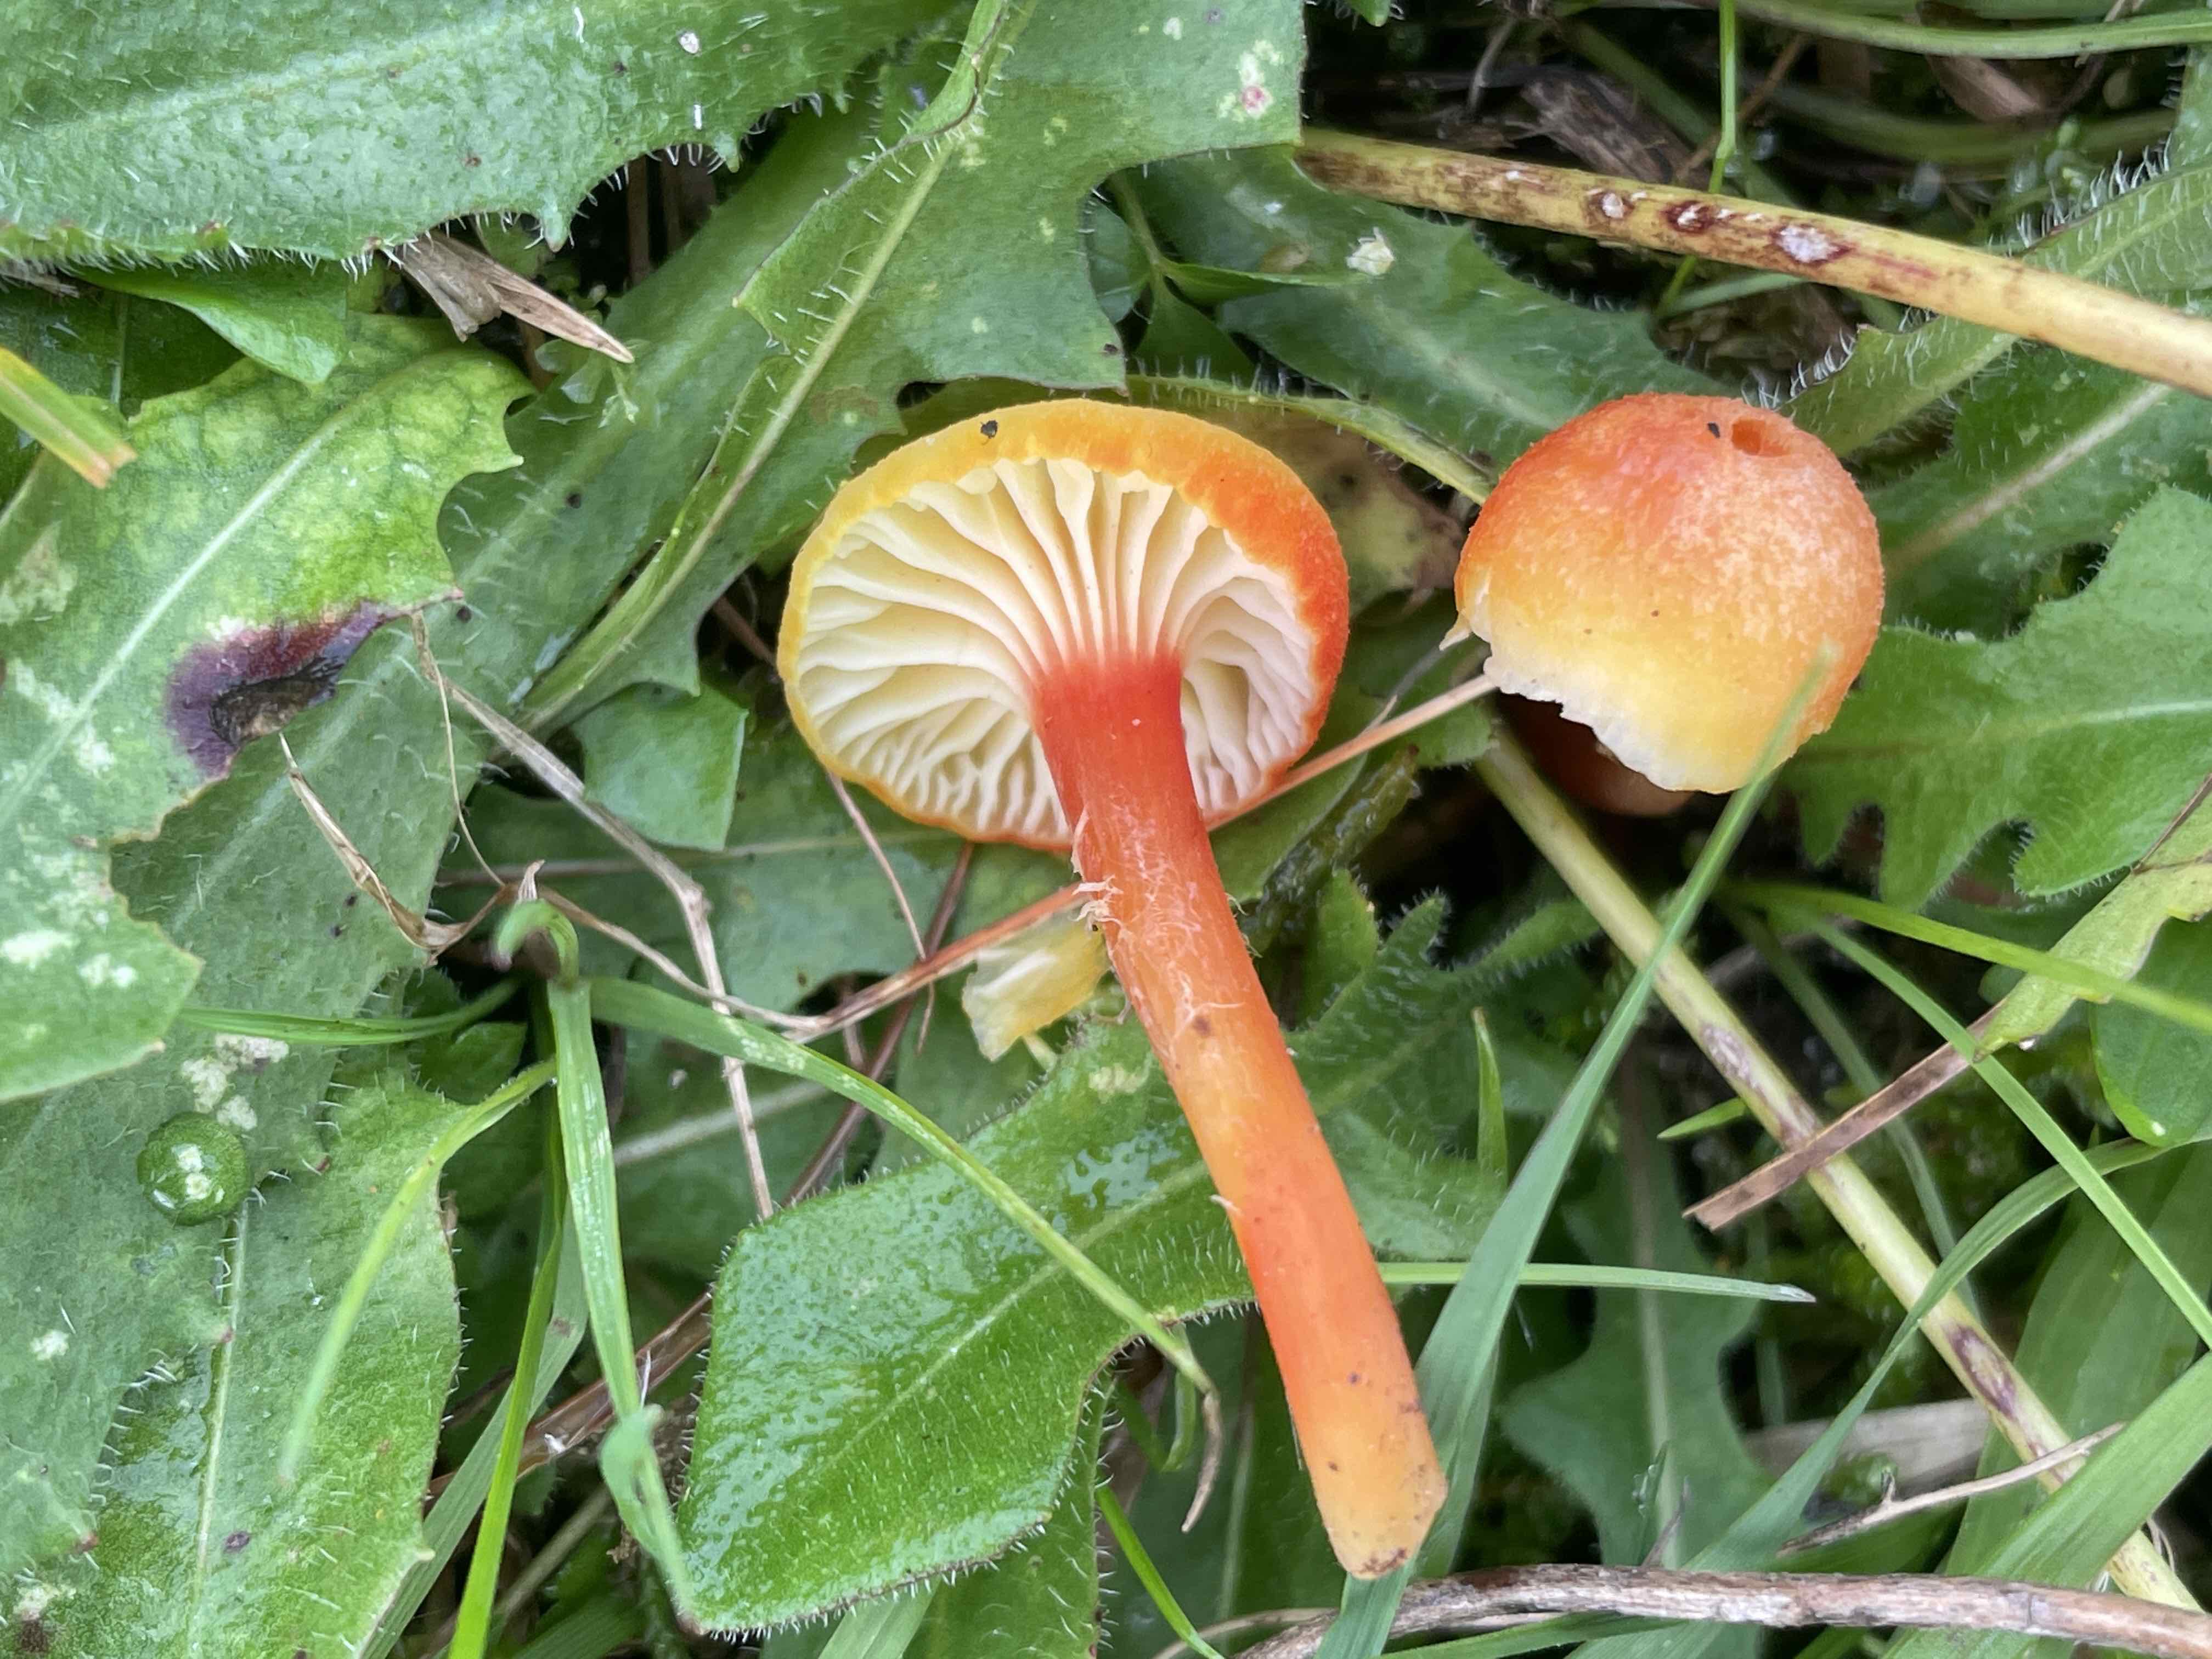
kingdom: Fungi
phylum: Basidiomycota
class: Agaricomycetes
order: Agaricales
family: Hygrophoraceae
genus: Hygrocybe
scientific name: Hygrocybe cantharellus
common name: kantarel-vokshat
